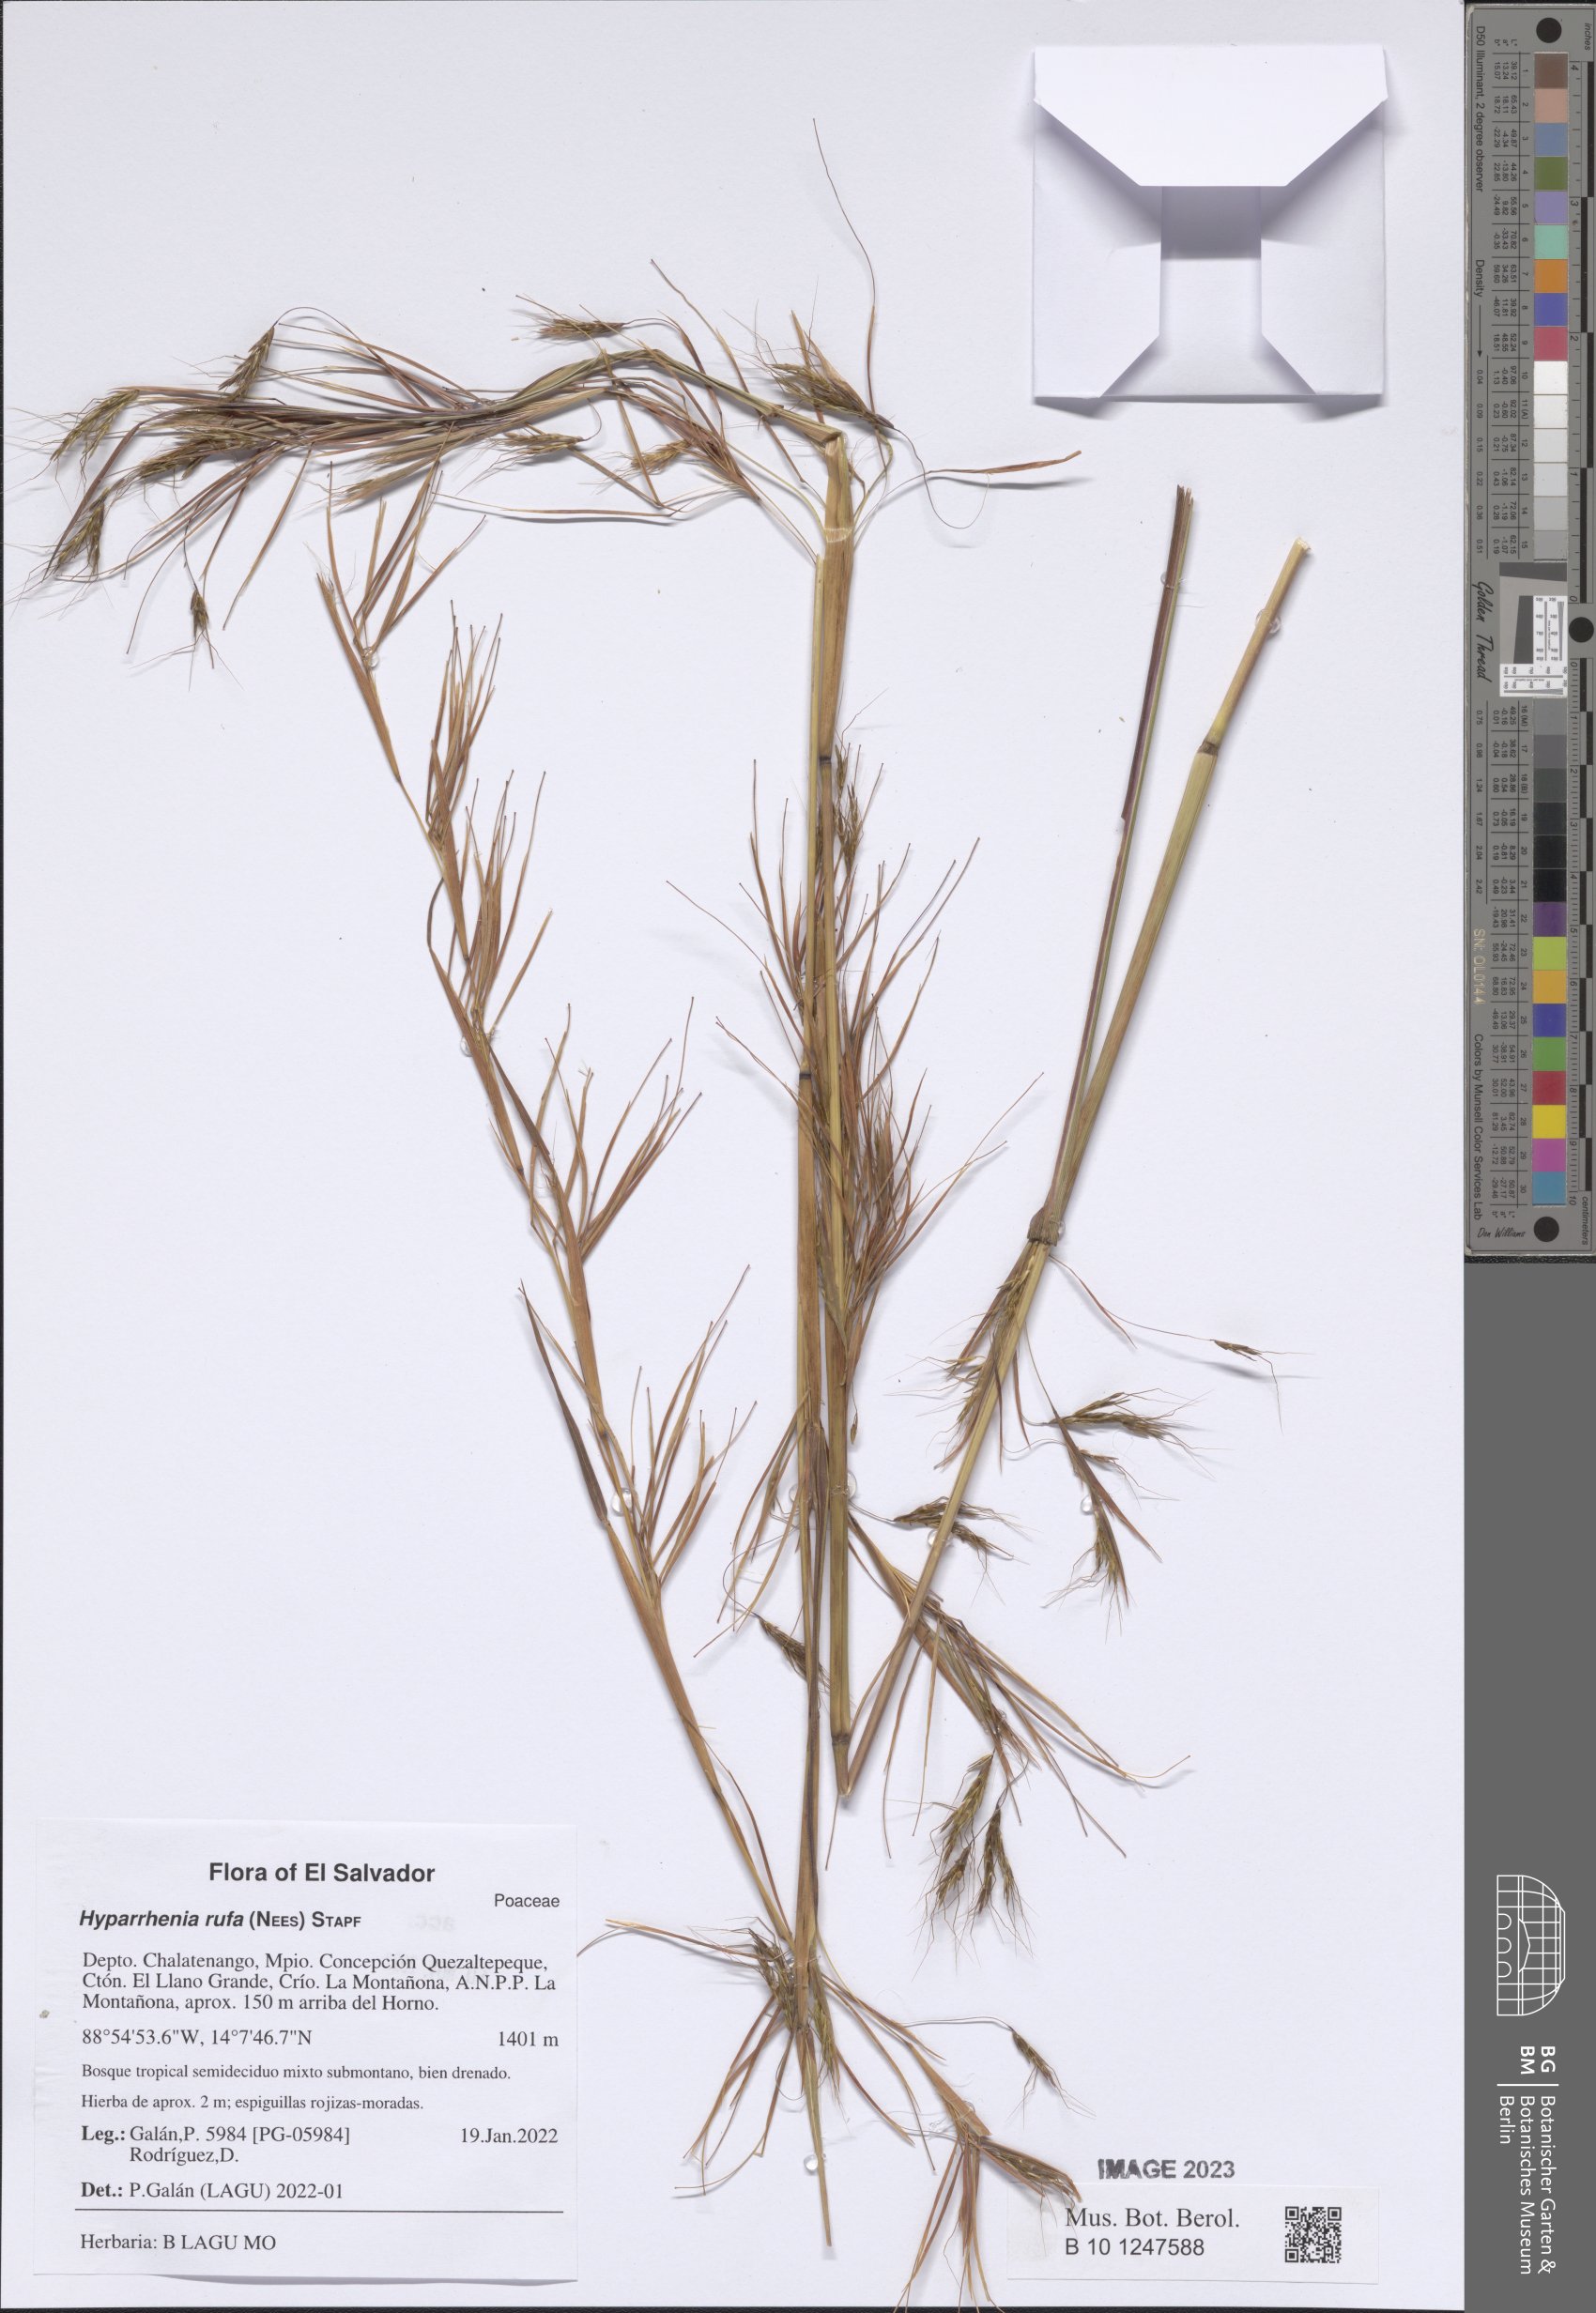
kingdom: Plantae
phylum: Tracheophyta
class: Liliopsida
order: Poales
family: Poaceae
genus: Hyparrhenia
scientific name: Hyparrhenia rufa
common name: Jaraguagrass
